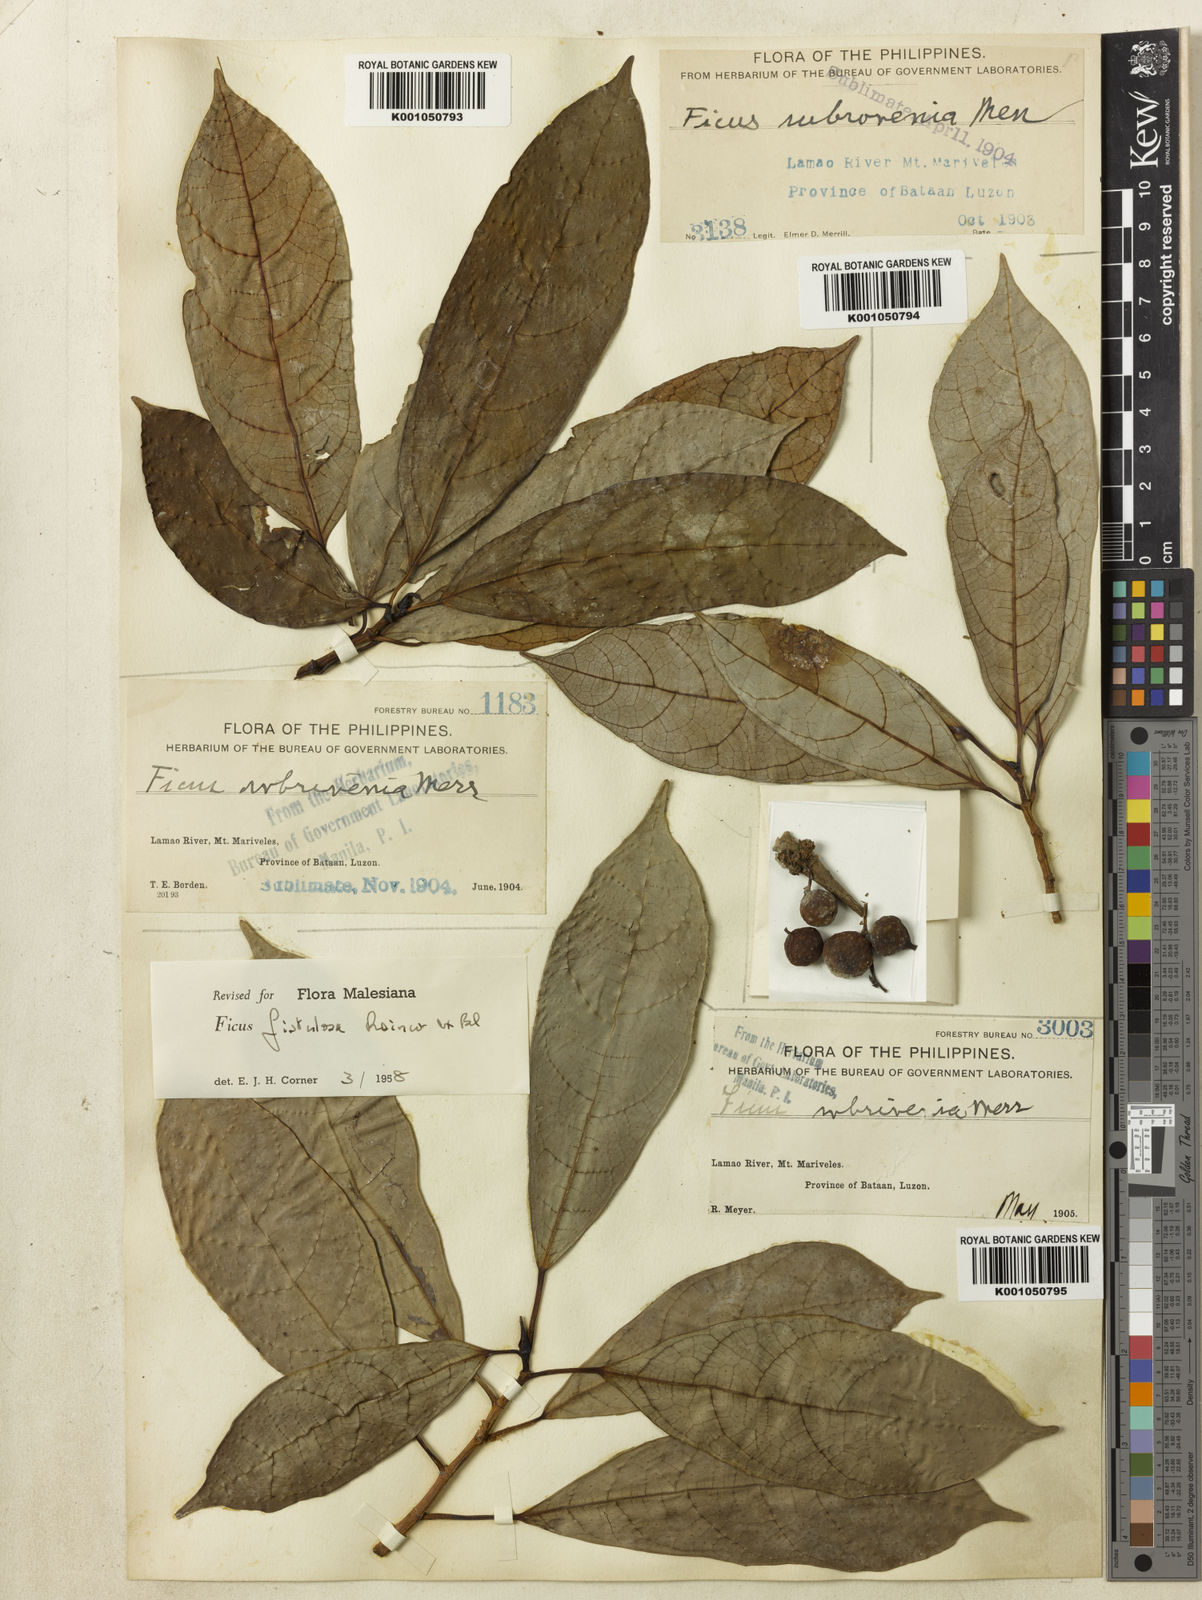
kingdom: Plantae
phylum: Tracheophyta
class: Magnoliopsida
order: Rosales
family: Moraceae
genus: Ficus
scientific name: Ficus fistulosa
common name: Figs
